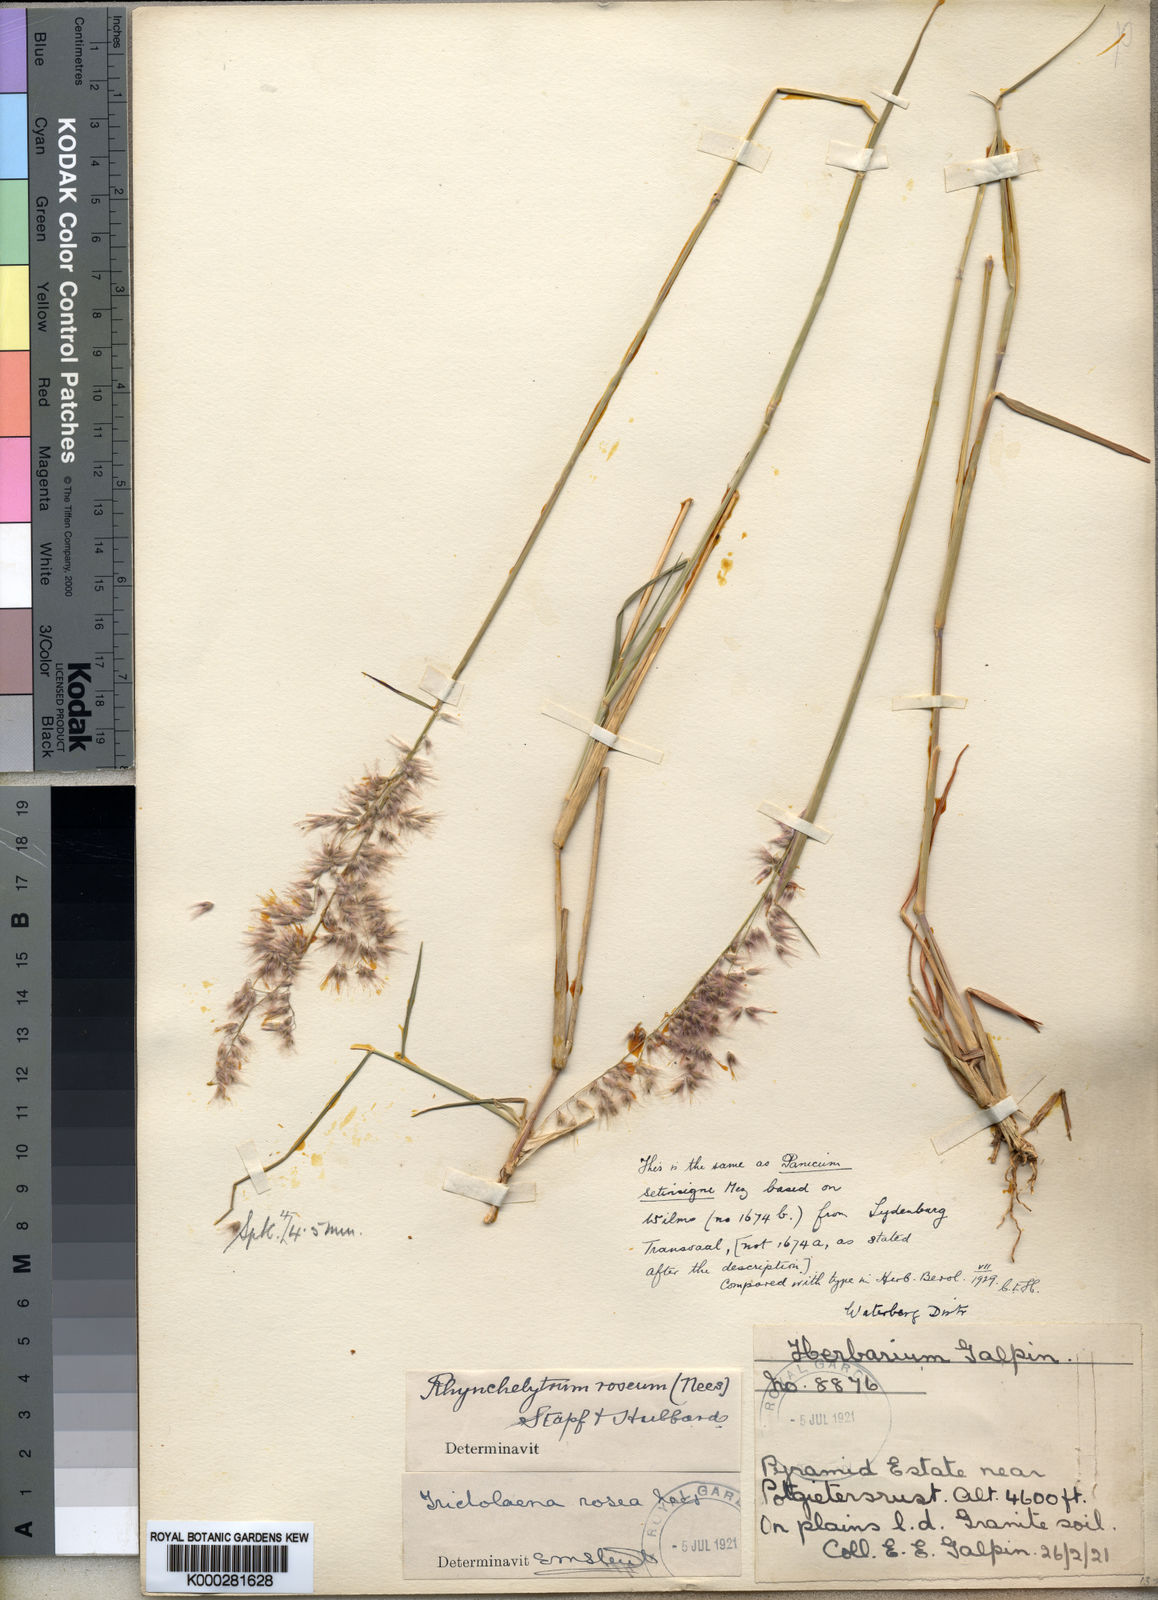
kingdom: Plantae
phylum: Tracheophyta
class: Liliopsida
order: Poales
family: Poaceae
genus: Melinis
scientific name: Melinis repens
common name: Rose natal grass
